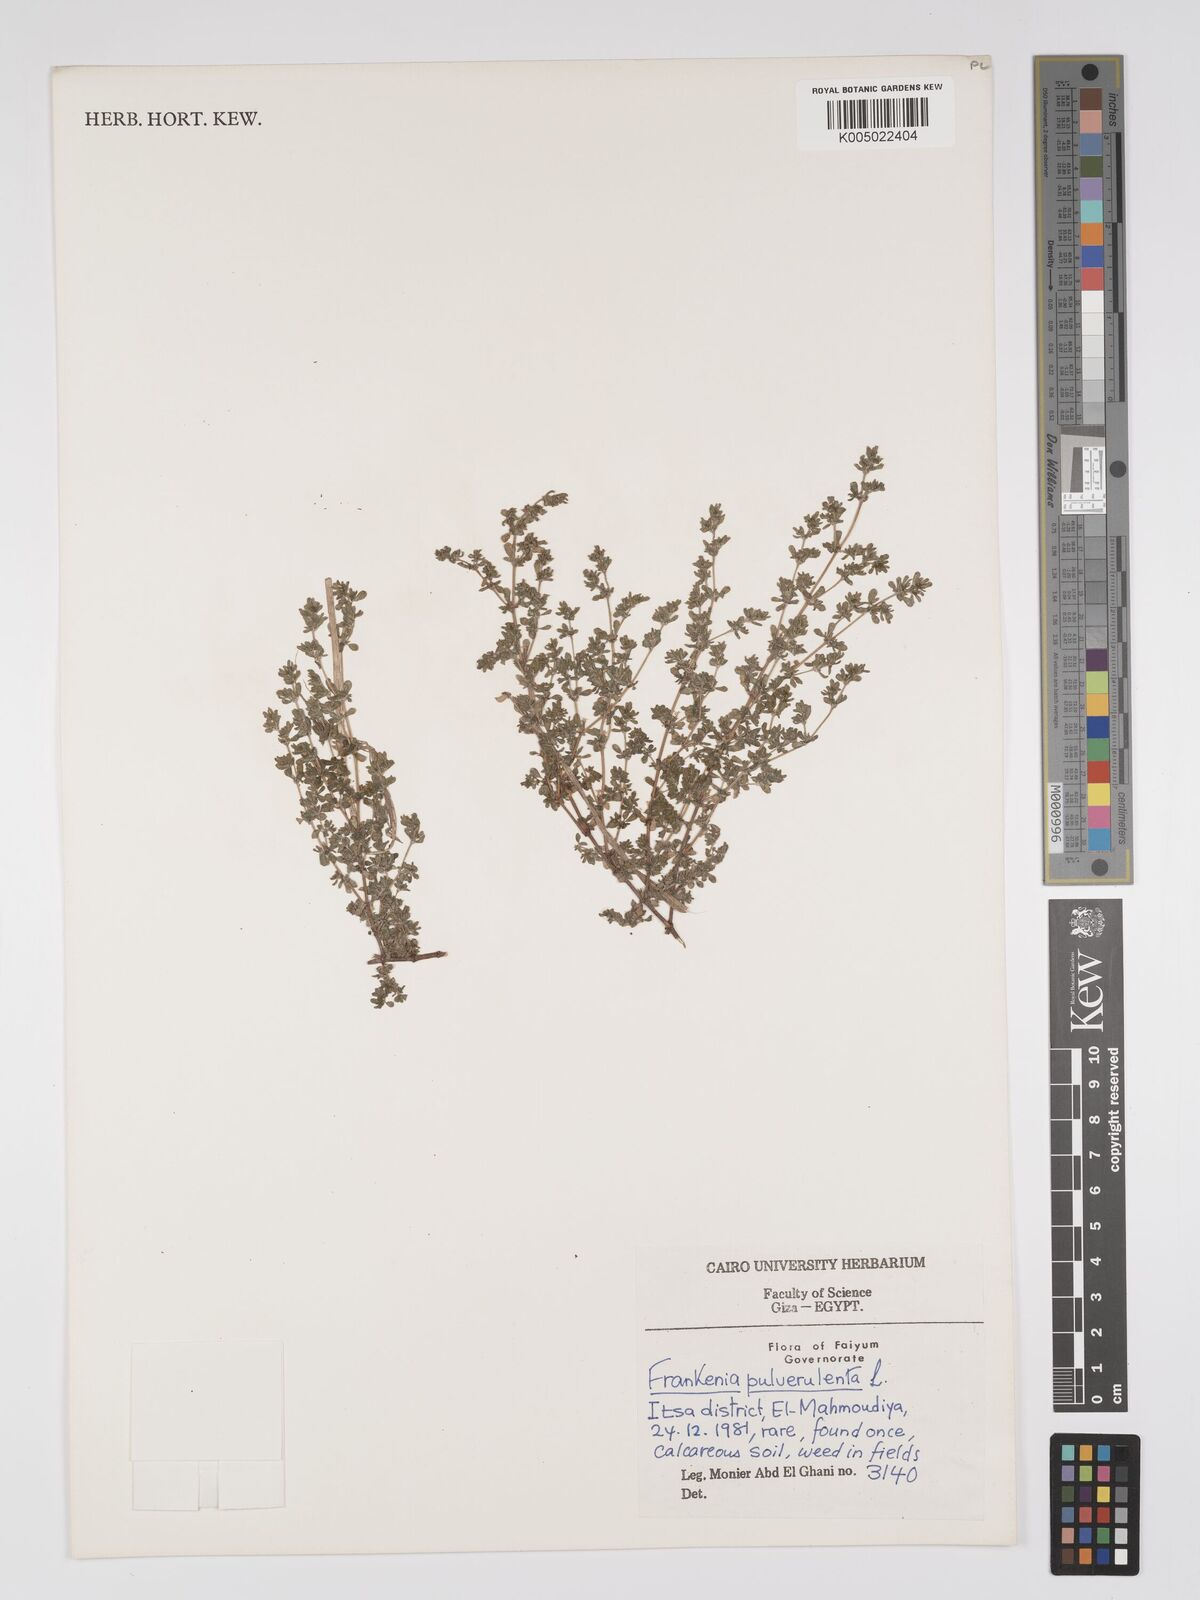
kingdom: Plantae
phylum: Tracheophyta
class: Magnoliopsida
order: Caryophyllales
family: Frankeniaceae
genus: Frankenia
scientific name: Frankenia pulverulenta
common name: European seaheath
